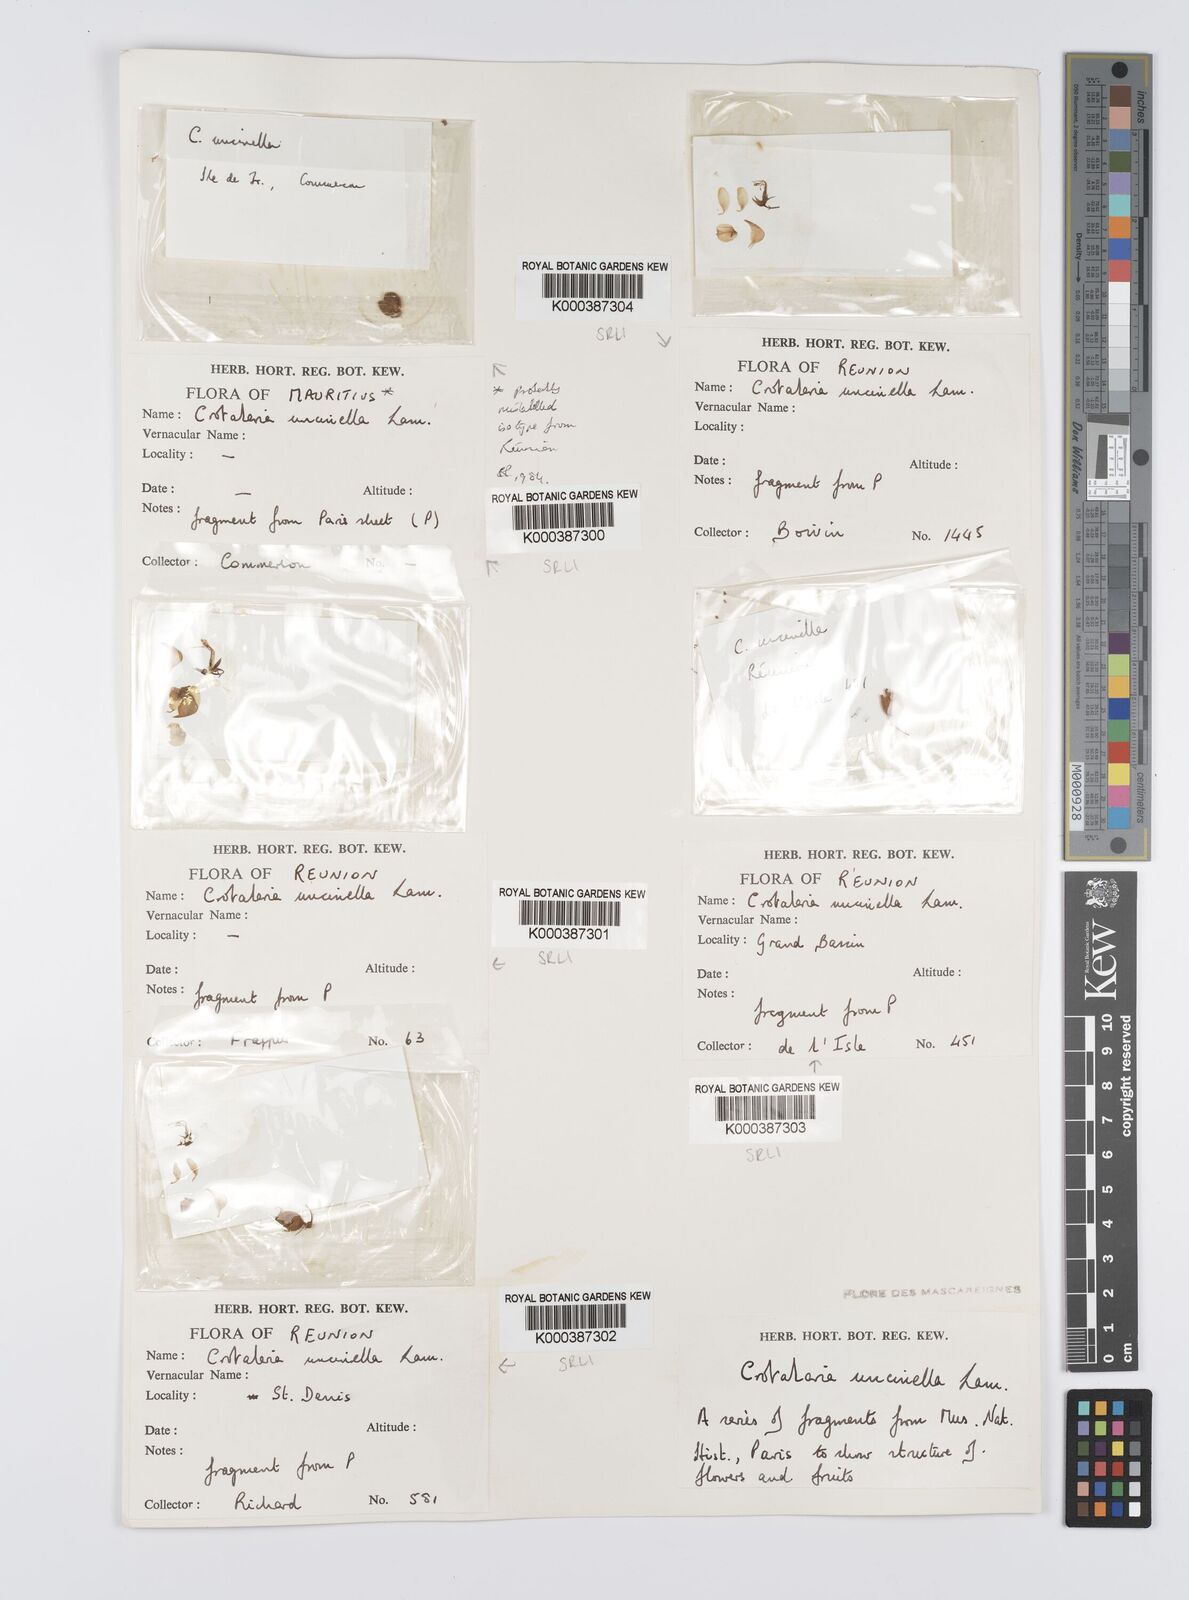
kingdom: Plantae
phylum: Tracheophyta
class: Magnoliopsida
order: Fabales
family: Fabaceae
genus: Crotalaria
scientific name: Crotalaria uncinella
